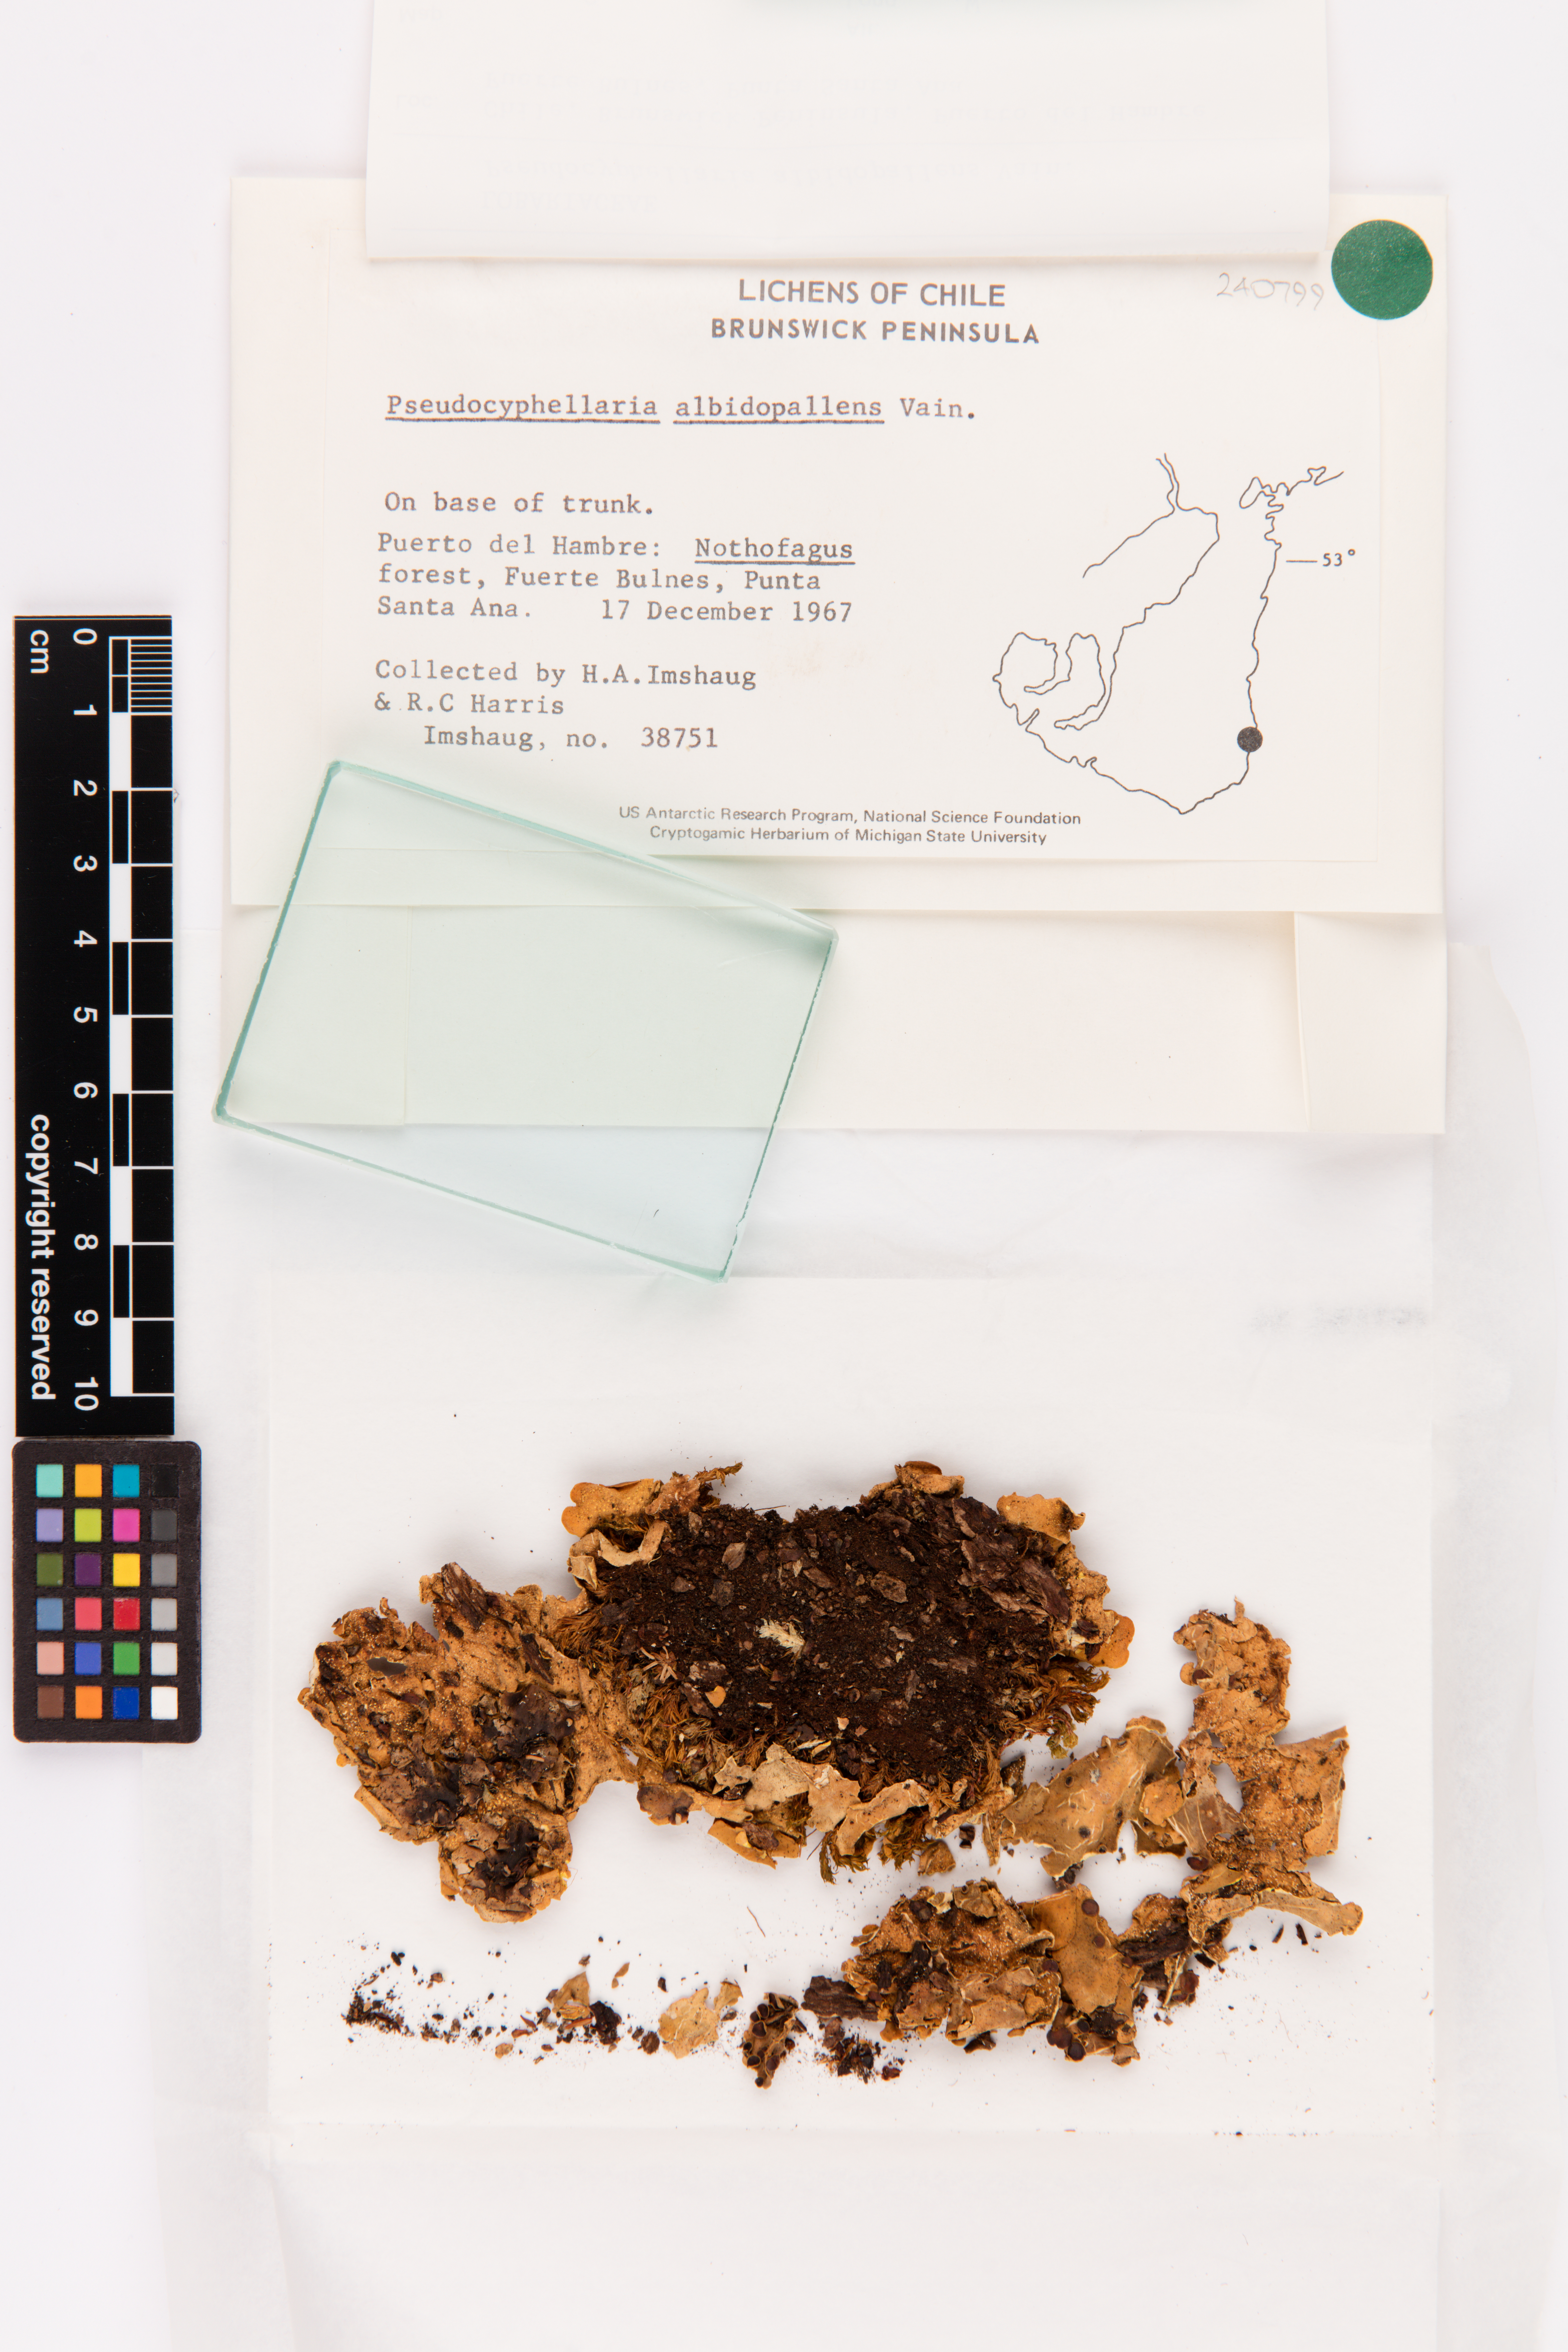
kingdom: Fungi
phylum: Ascomycota
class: Lecanoromycetes
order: Peltigerales
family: Lobariaceae
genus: Podostictina
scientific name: Podostictina vaccina
